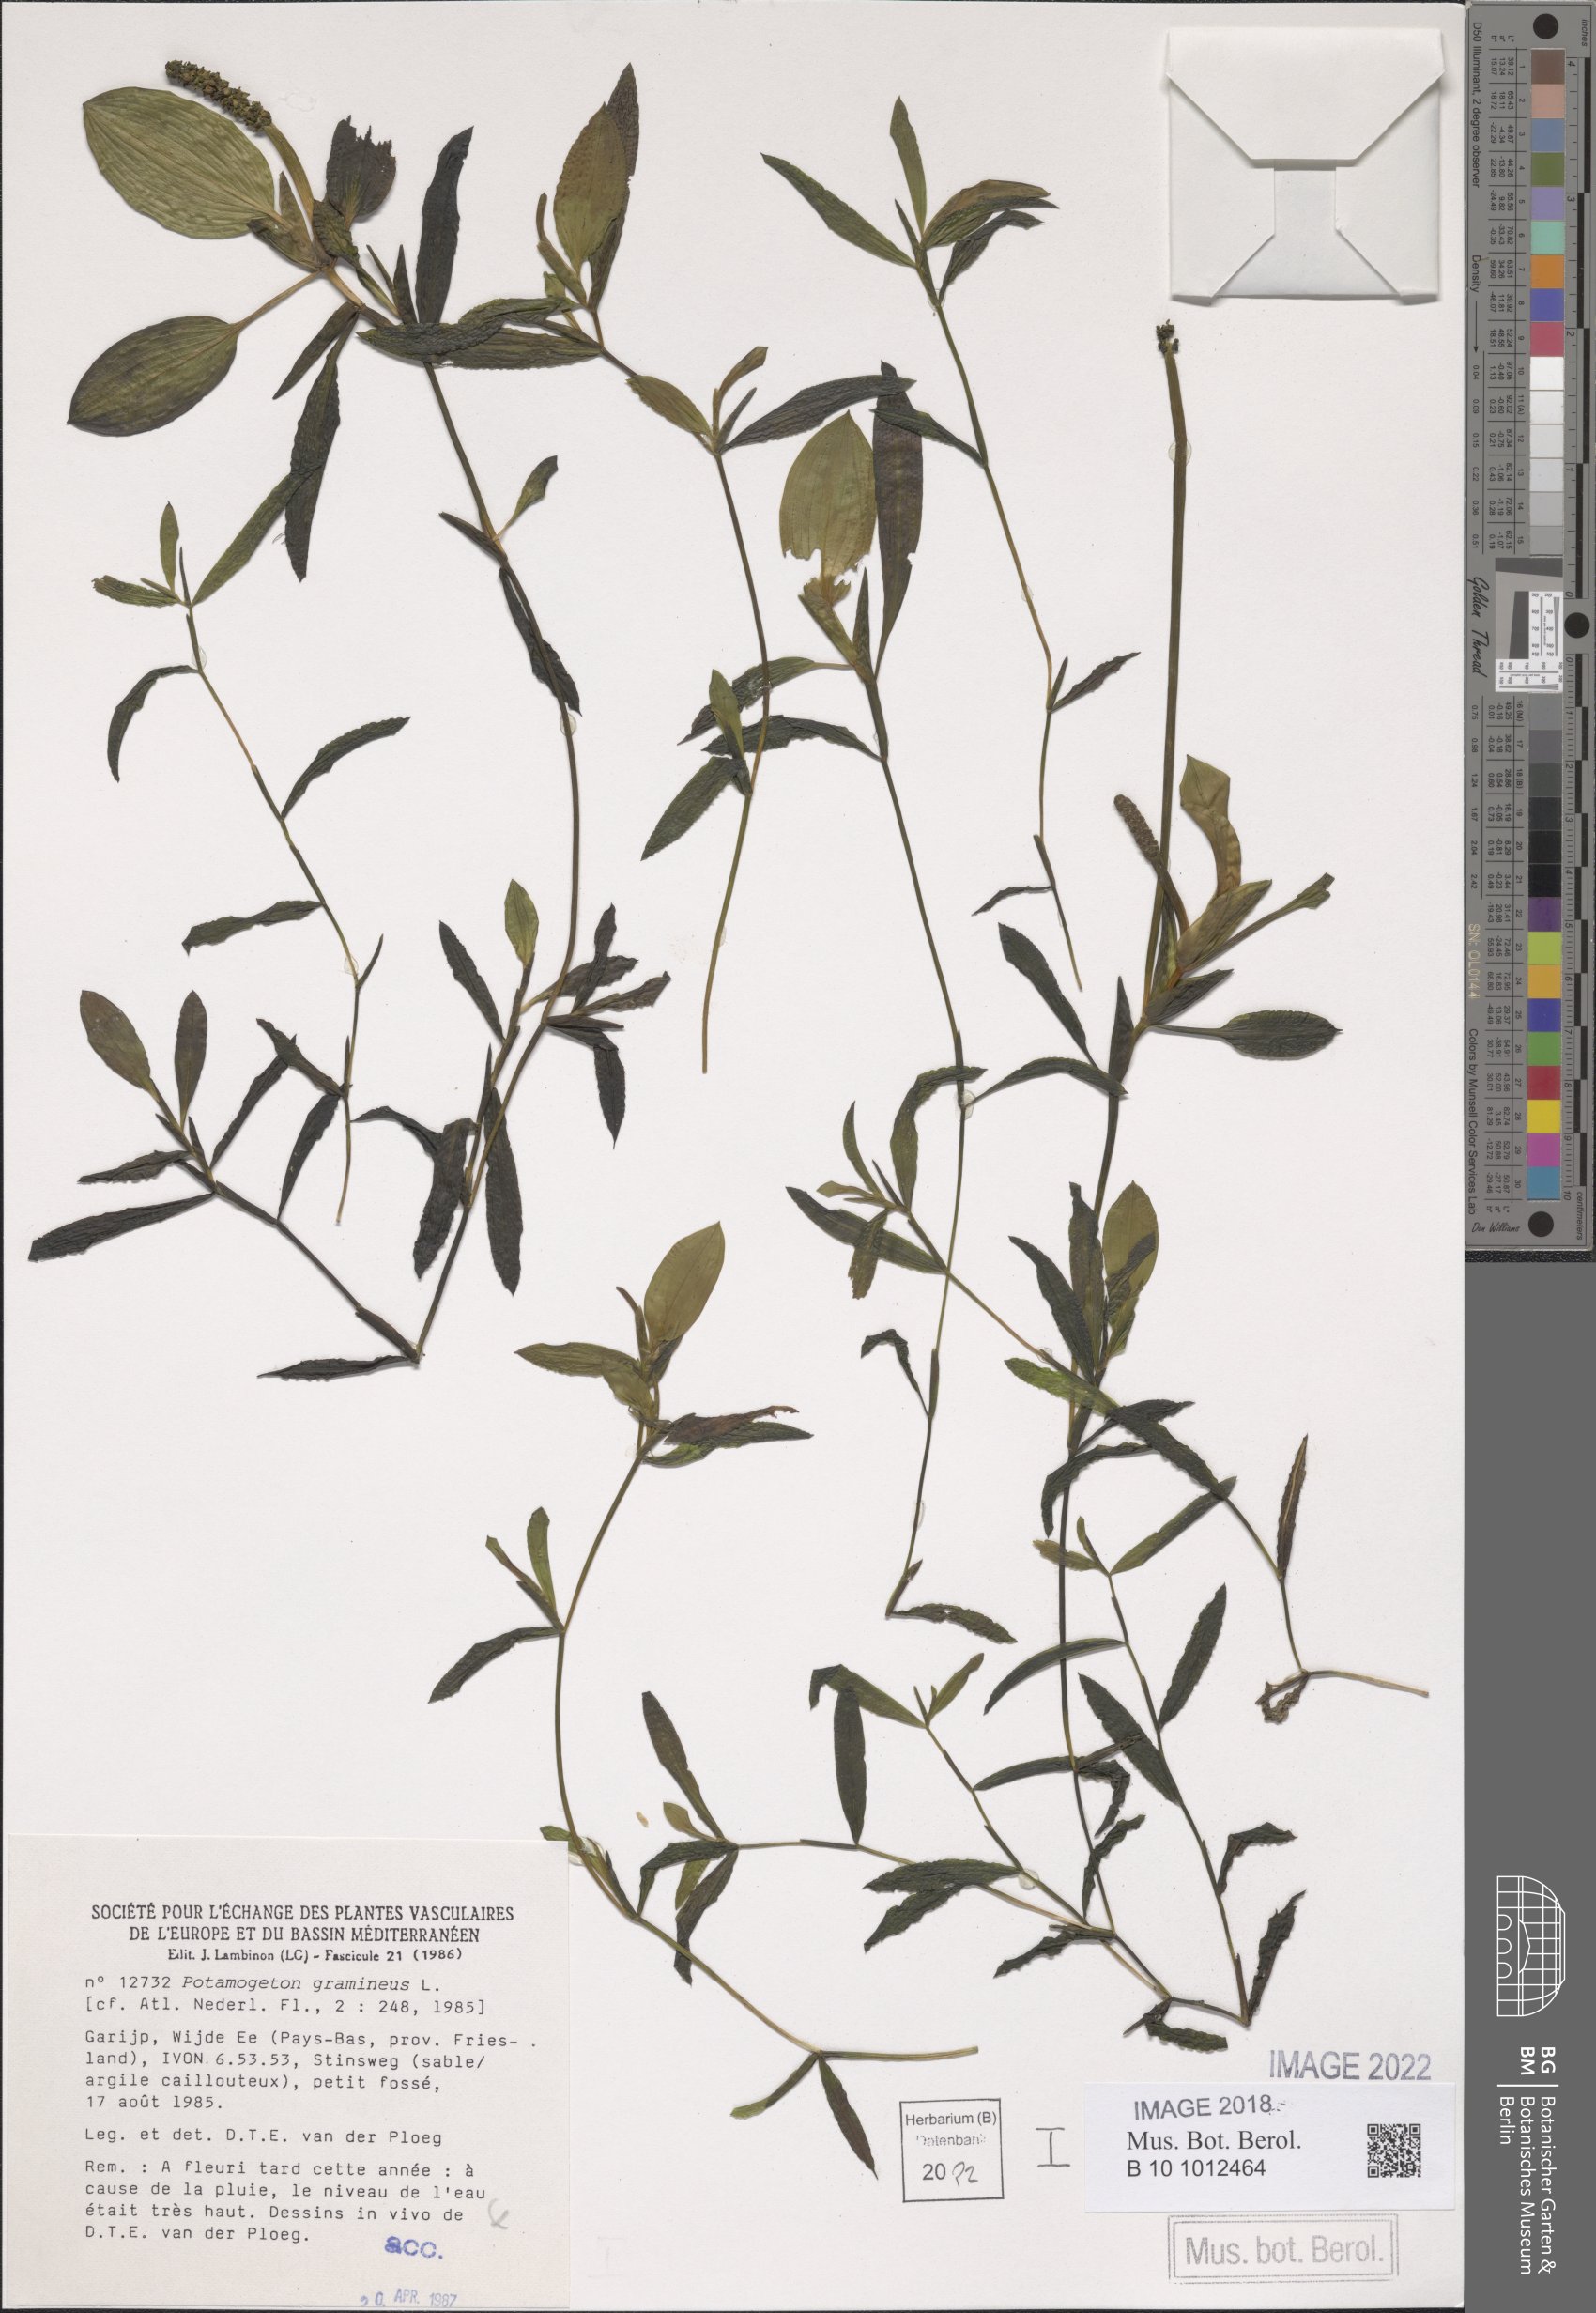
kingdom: Plantae
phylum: Tracheophyta
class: Liliopsida
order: Alismatales
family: Potamogetonaceae
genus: Potamogeton
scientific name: Potamogeton gramineus
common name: Various-leaved pondweed
